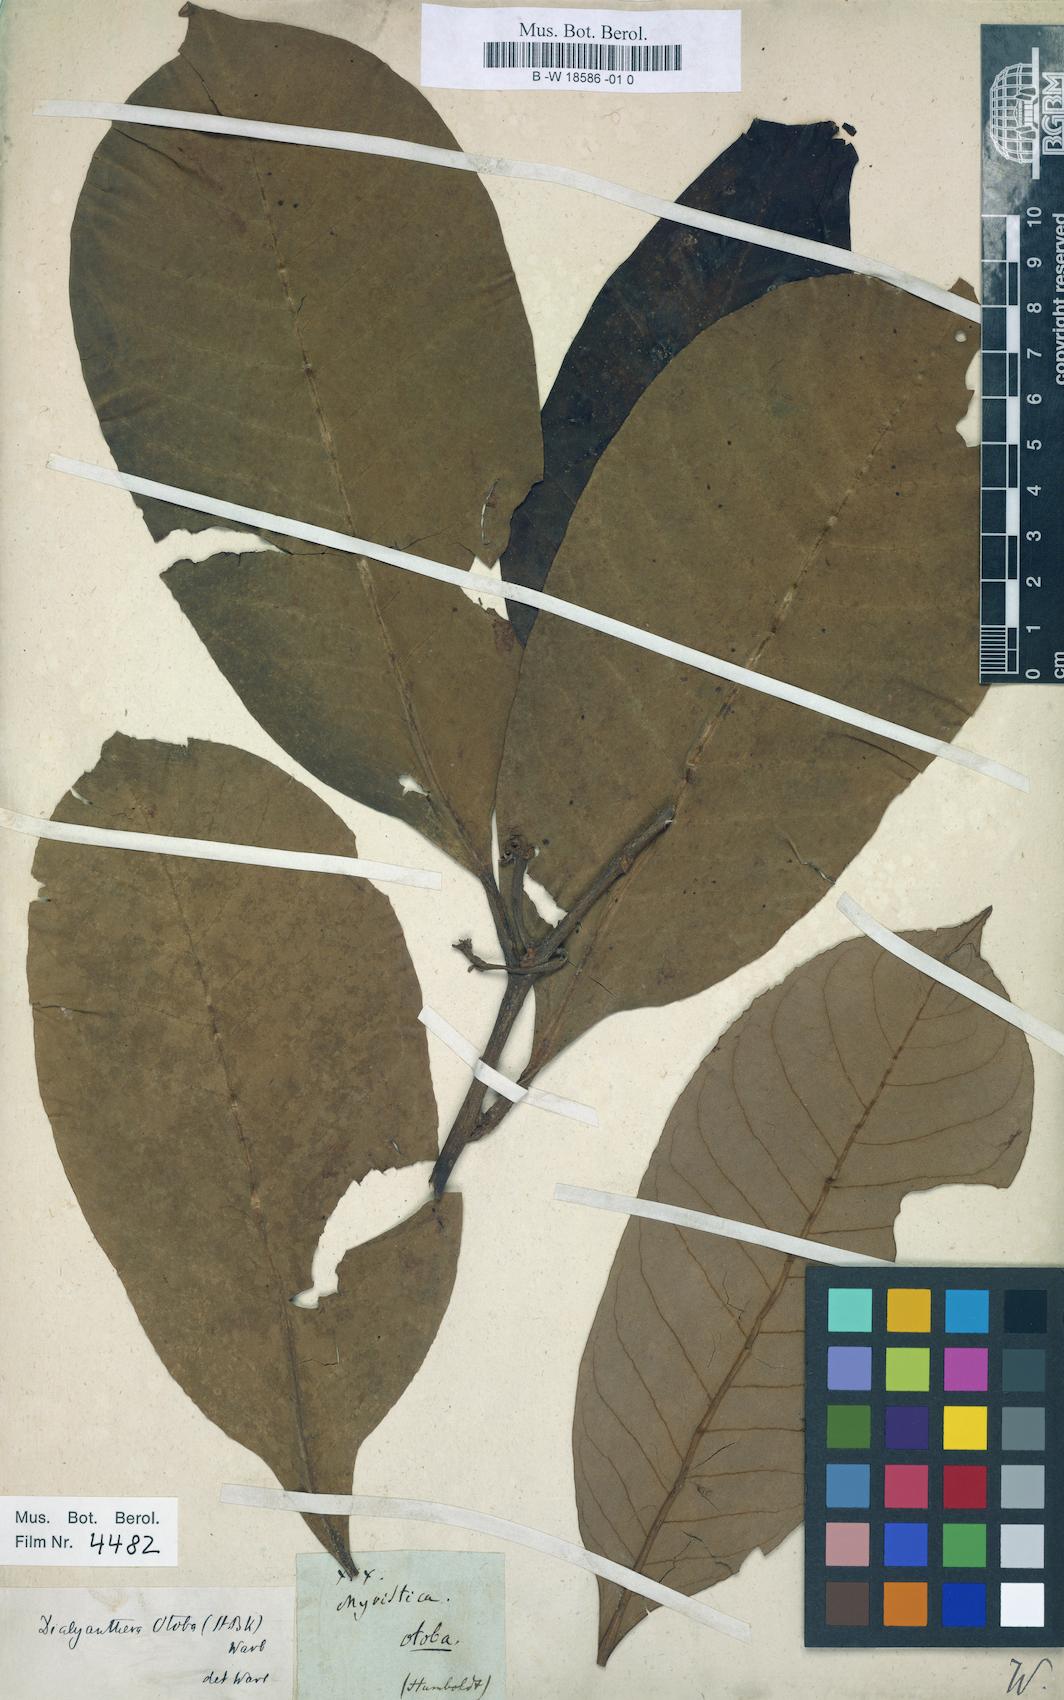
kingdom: Plantae
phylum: Tracheophyta
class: Magnoliopsida
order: Magnoliales
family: Myristicaceae
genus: Otoba
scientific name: Otoba novogranatensis
